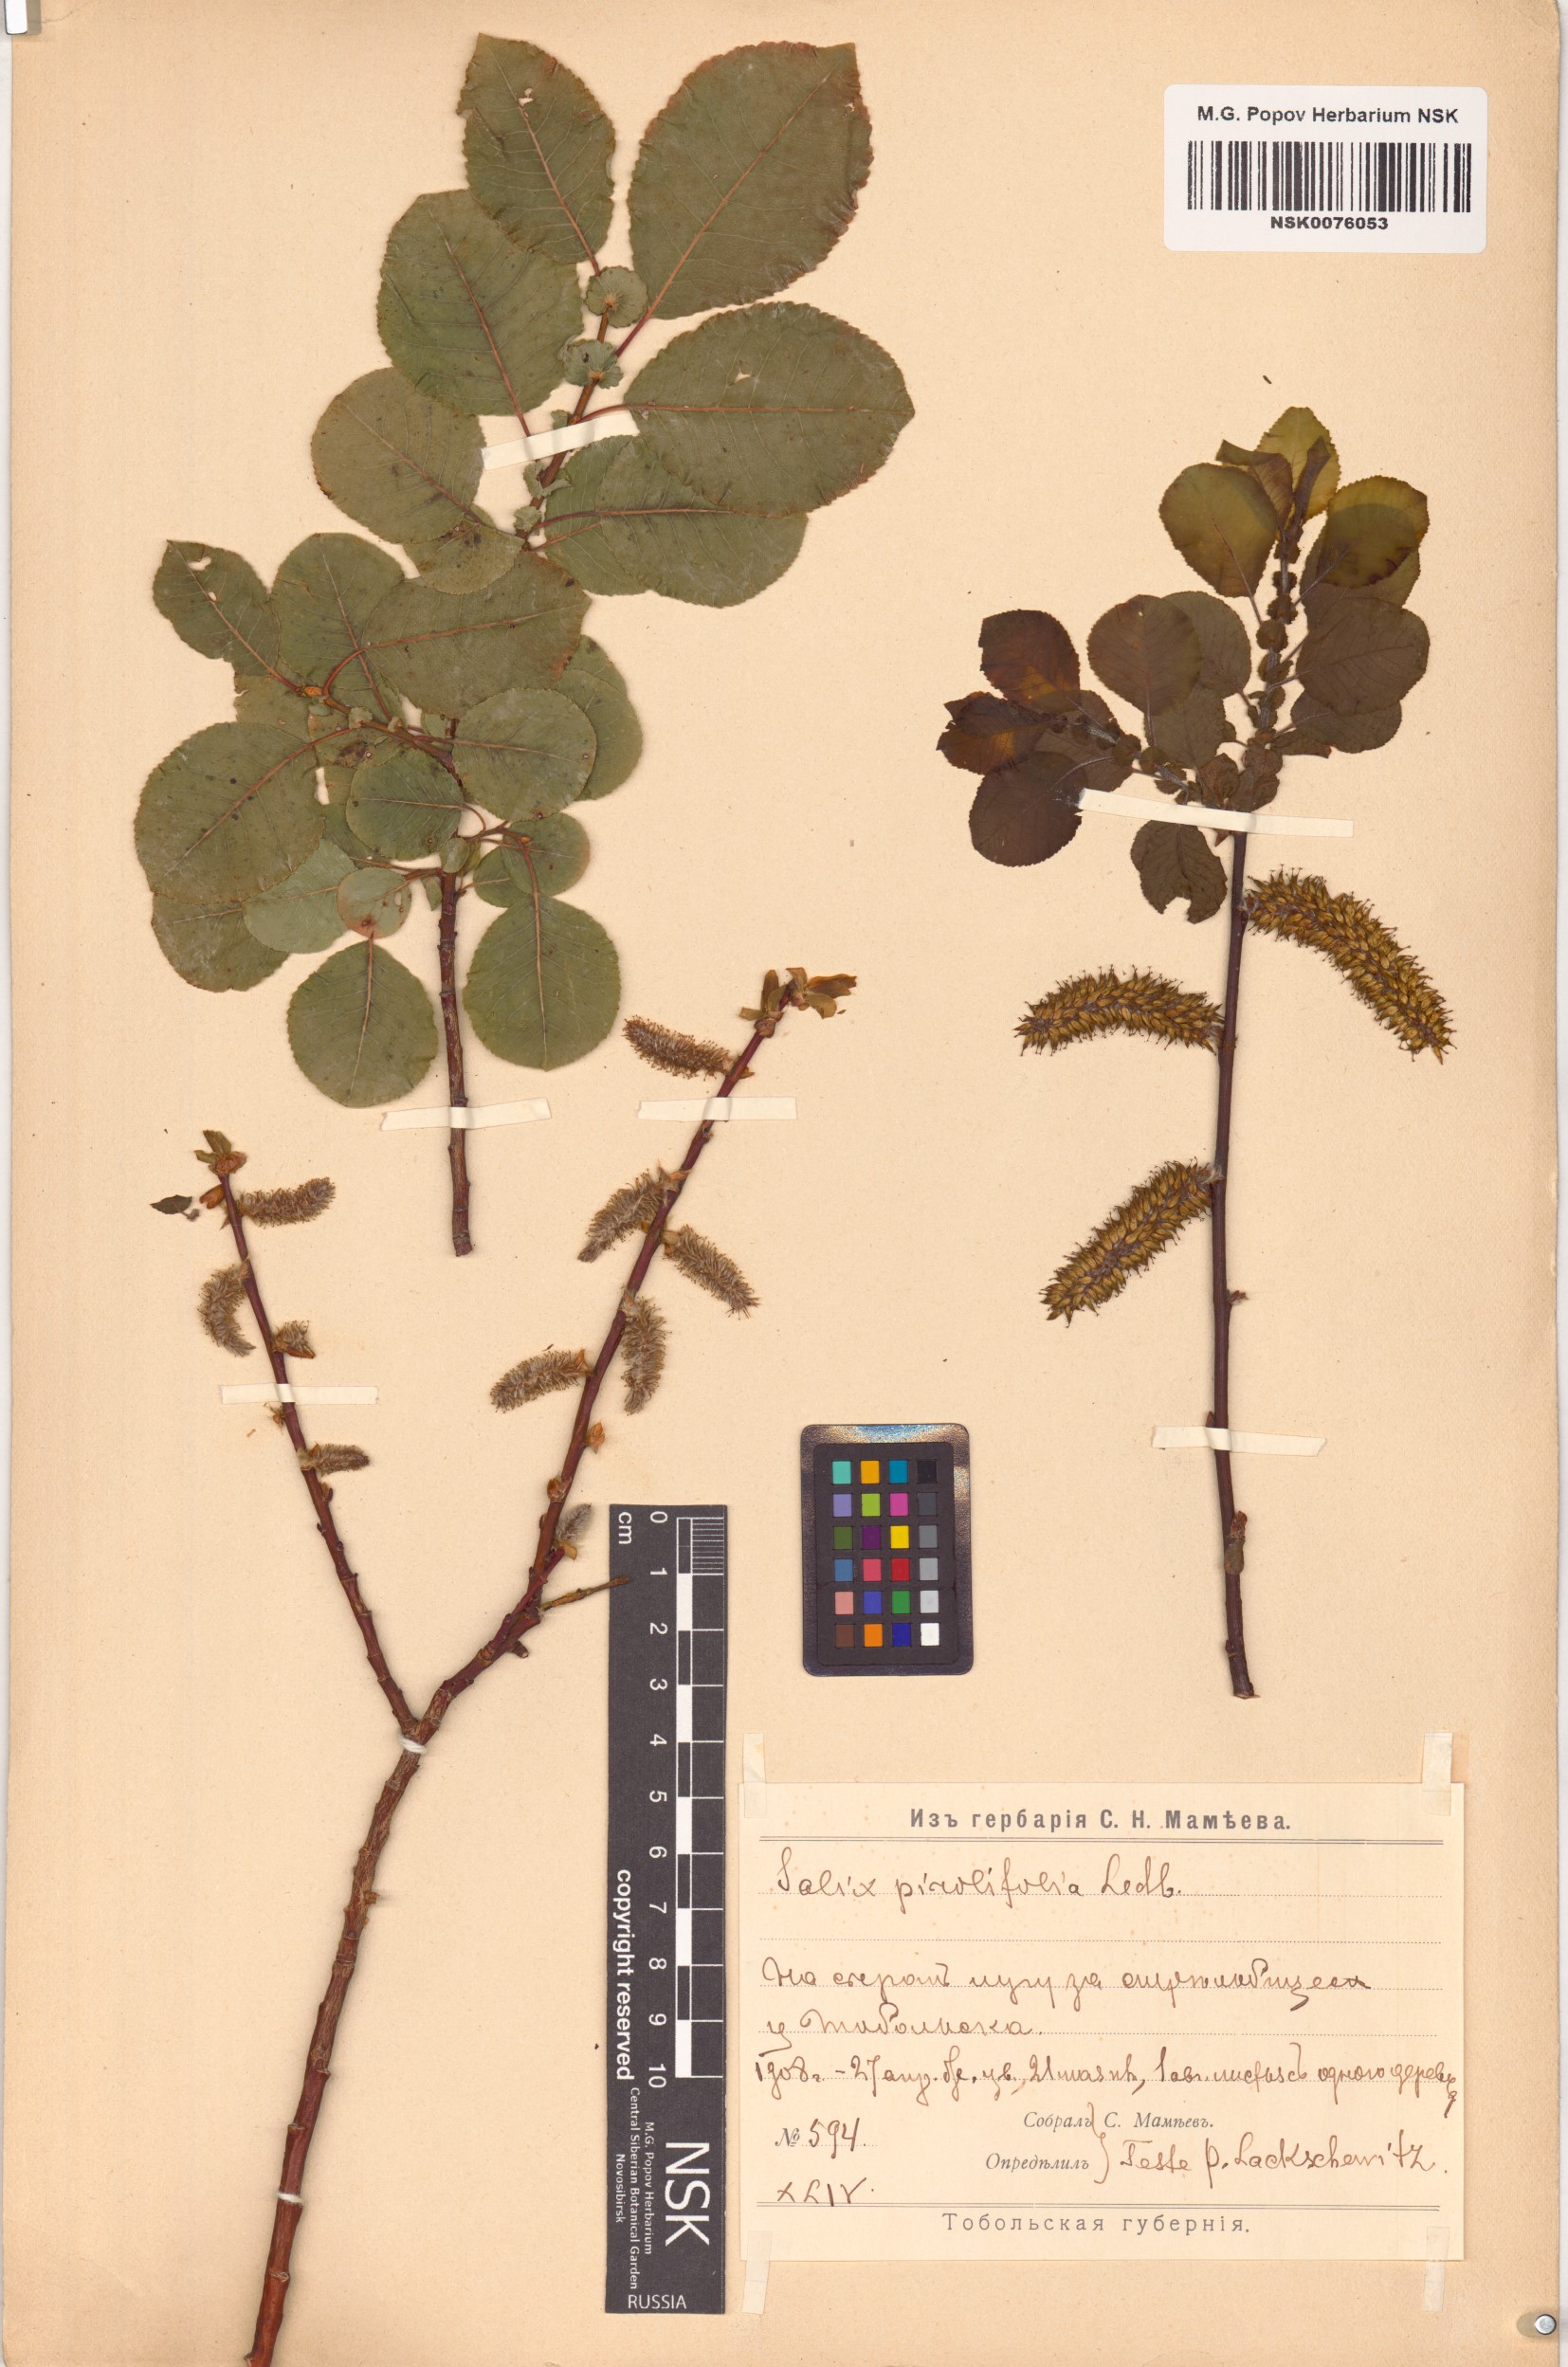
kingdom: Plantae
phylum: Tracheophyta
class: Magnoliopsida
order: Malpighiales
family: Salicaceae
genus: Salix
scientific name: Salix pyrolifolia
